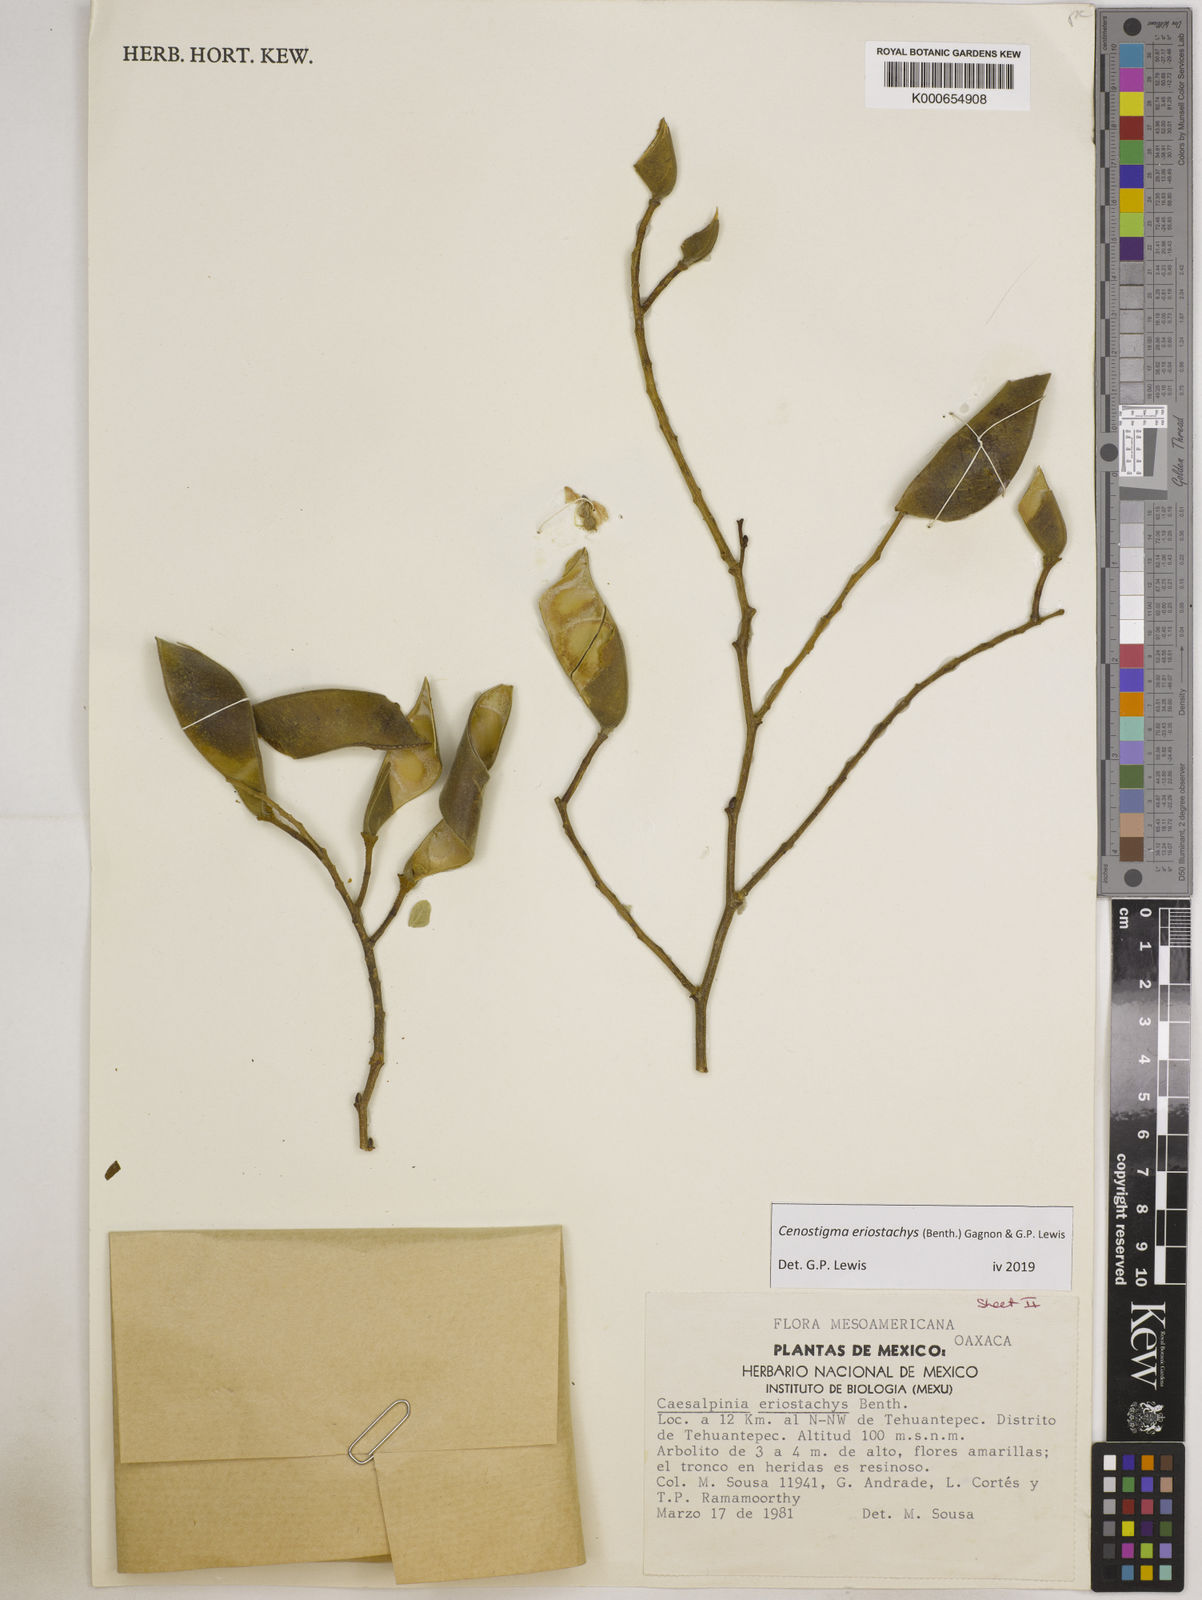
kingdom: Plantae
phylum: Tracheophyta
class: Magnoliopsida
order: Fabales
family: Fabaceae
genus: Cenostigma
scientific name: Cenostigma eriostachys
